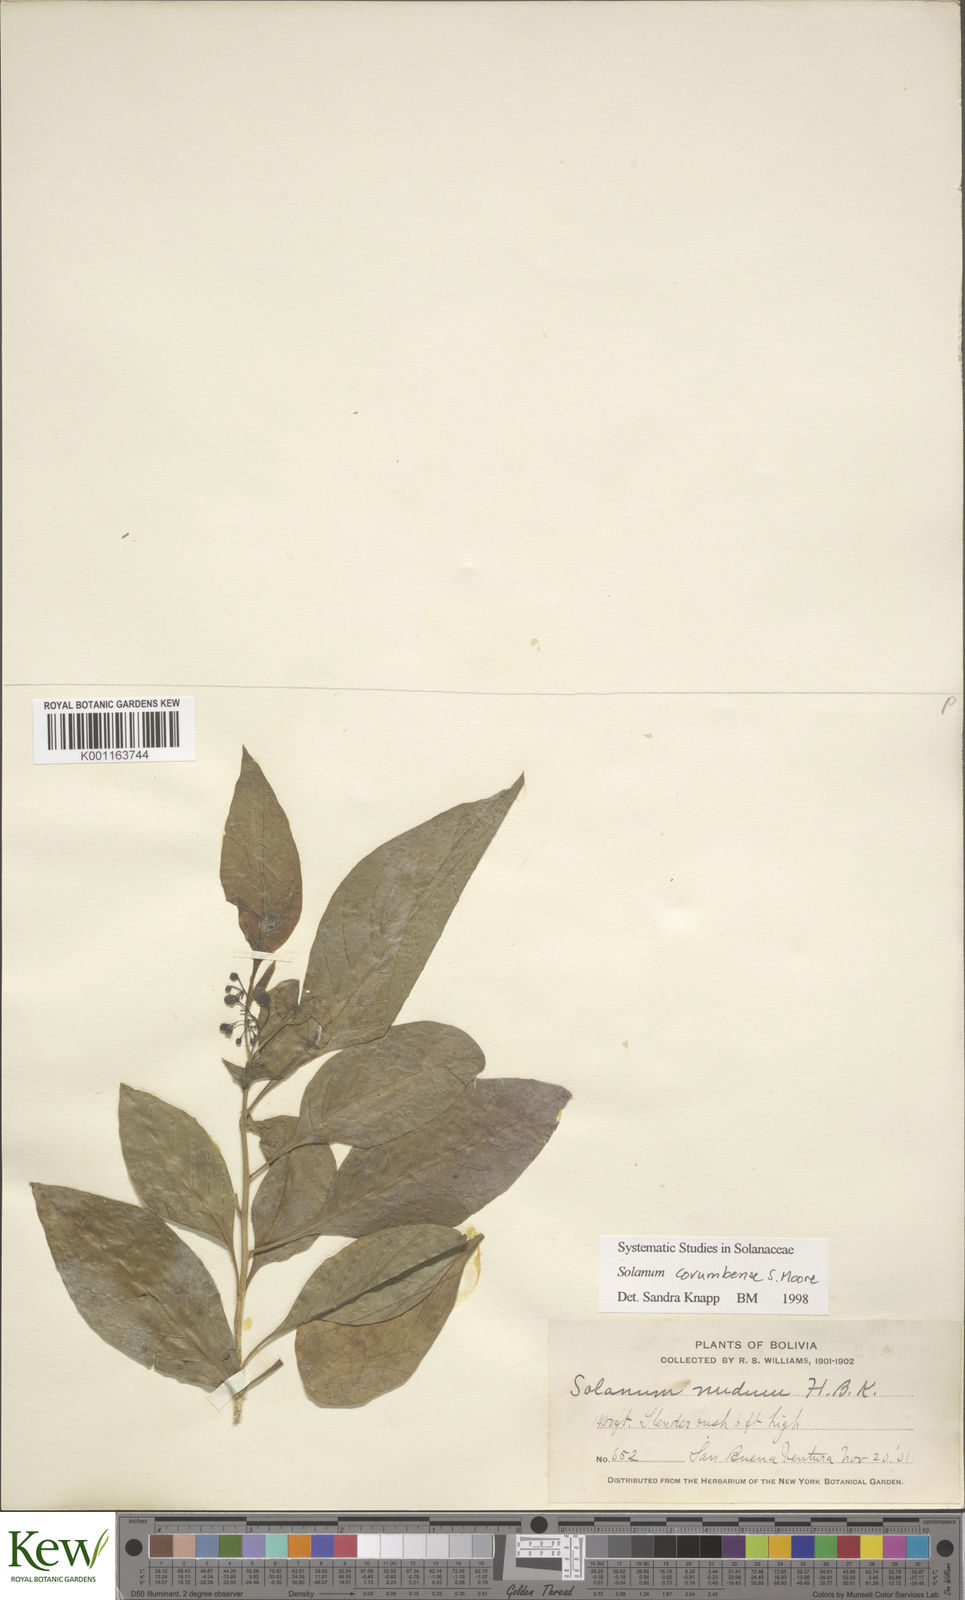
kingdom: Plantae
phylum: Tracheophyta
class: Magnoliopsida
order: Solanales
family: Solanaceae
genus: Solanum
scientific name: Solanum corumbense
